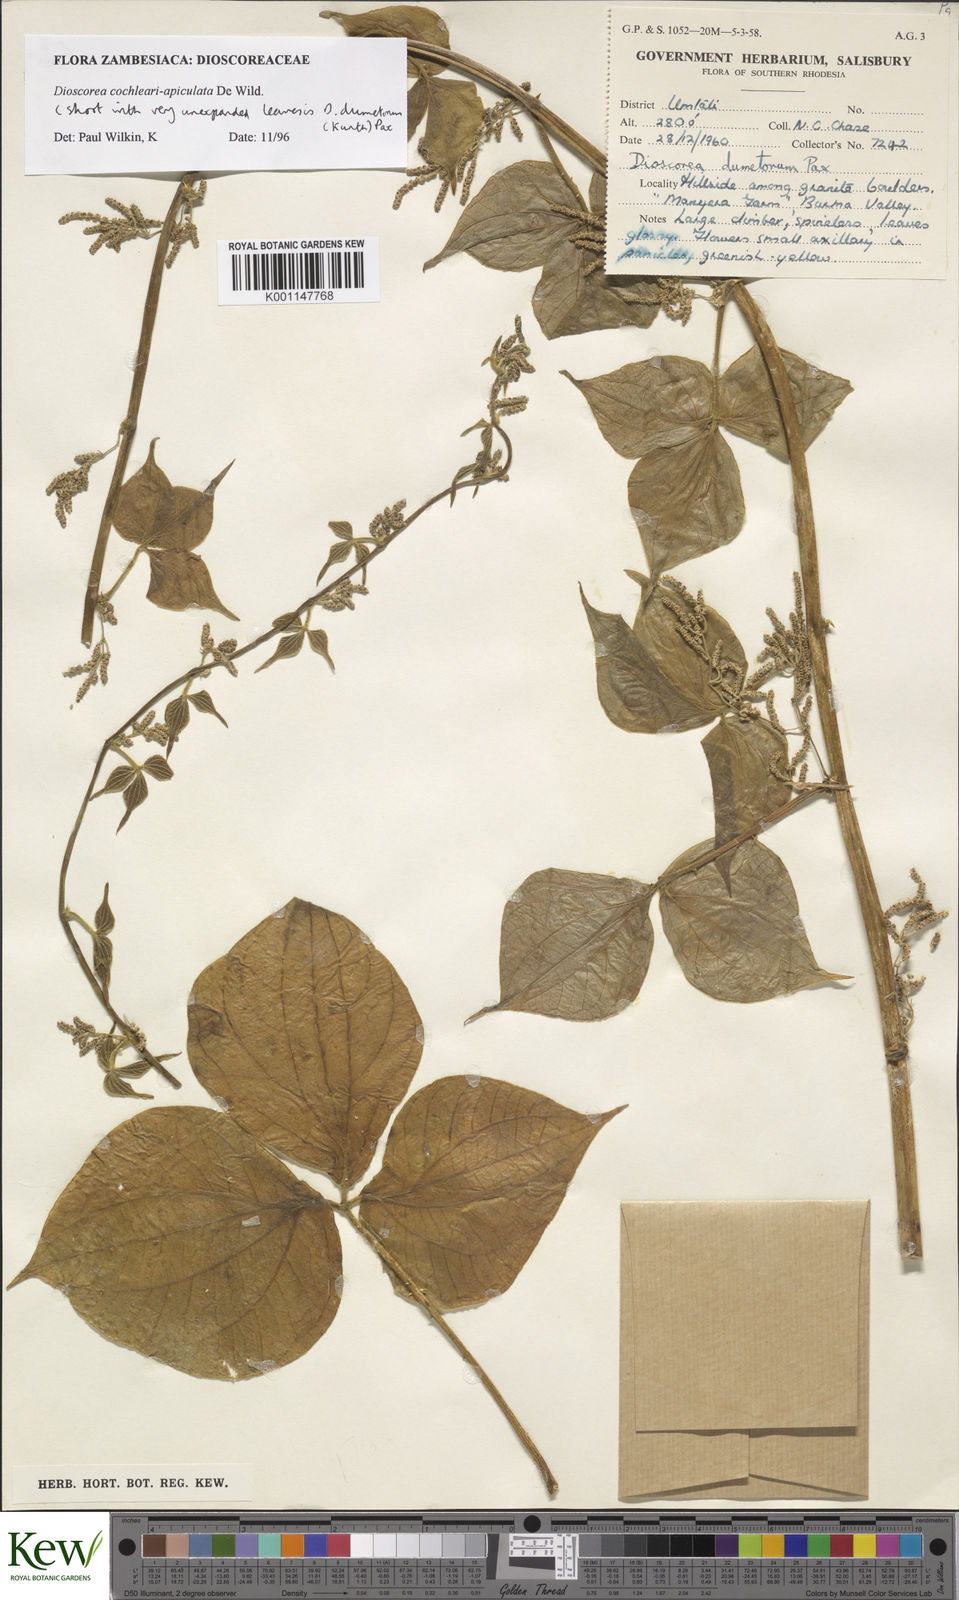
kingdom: Plantae
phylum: Tracheophyta
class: Liliopsida
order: Dioscoreales
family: Dioscoreaceae
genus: Dioscorea
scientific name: Dioscorea cochleariapiculata
